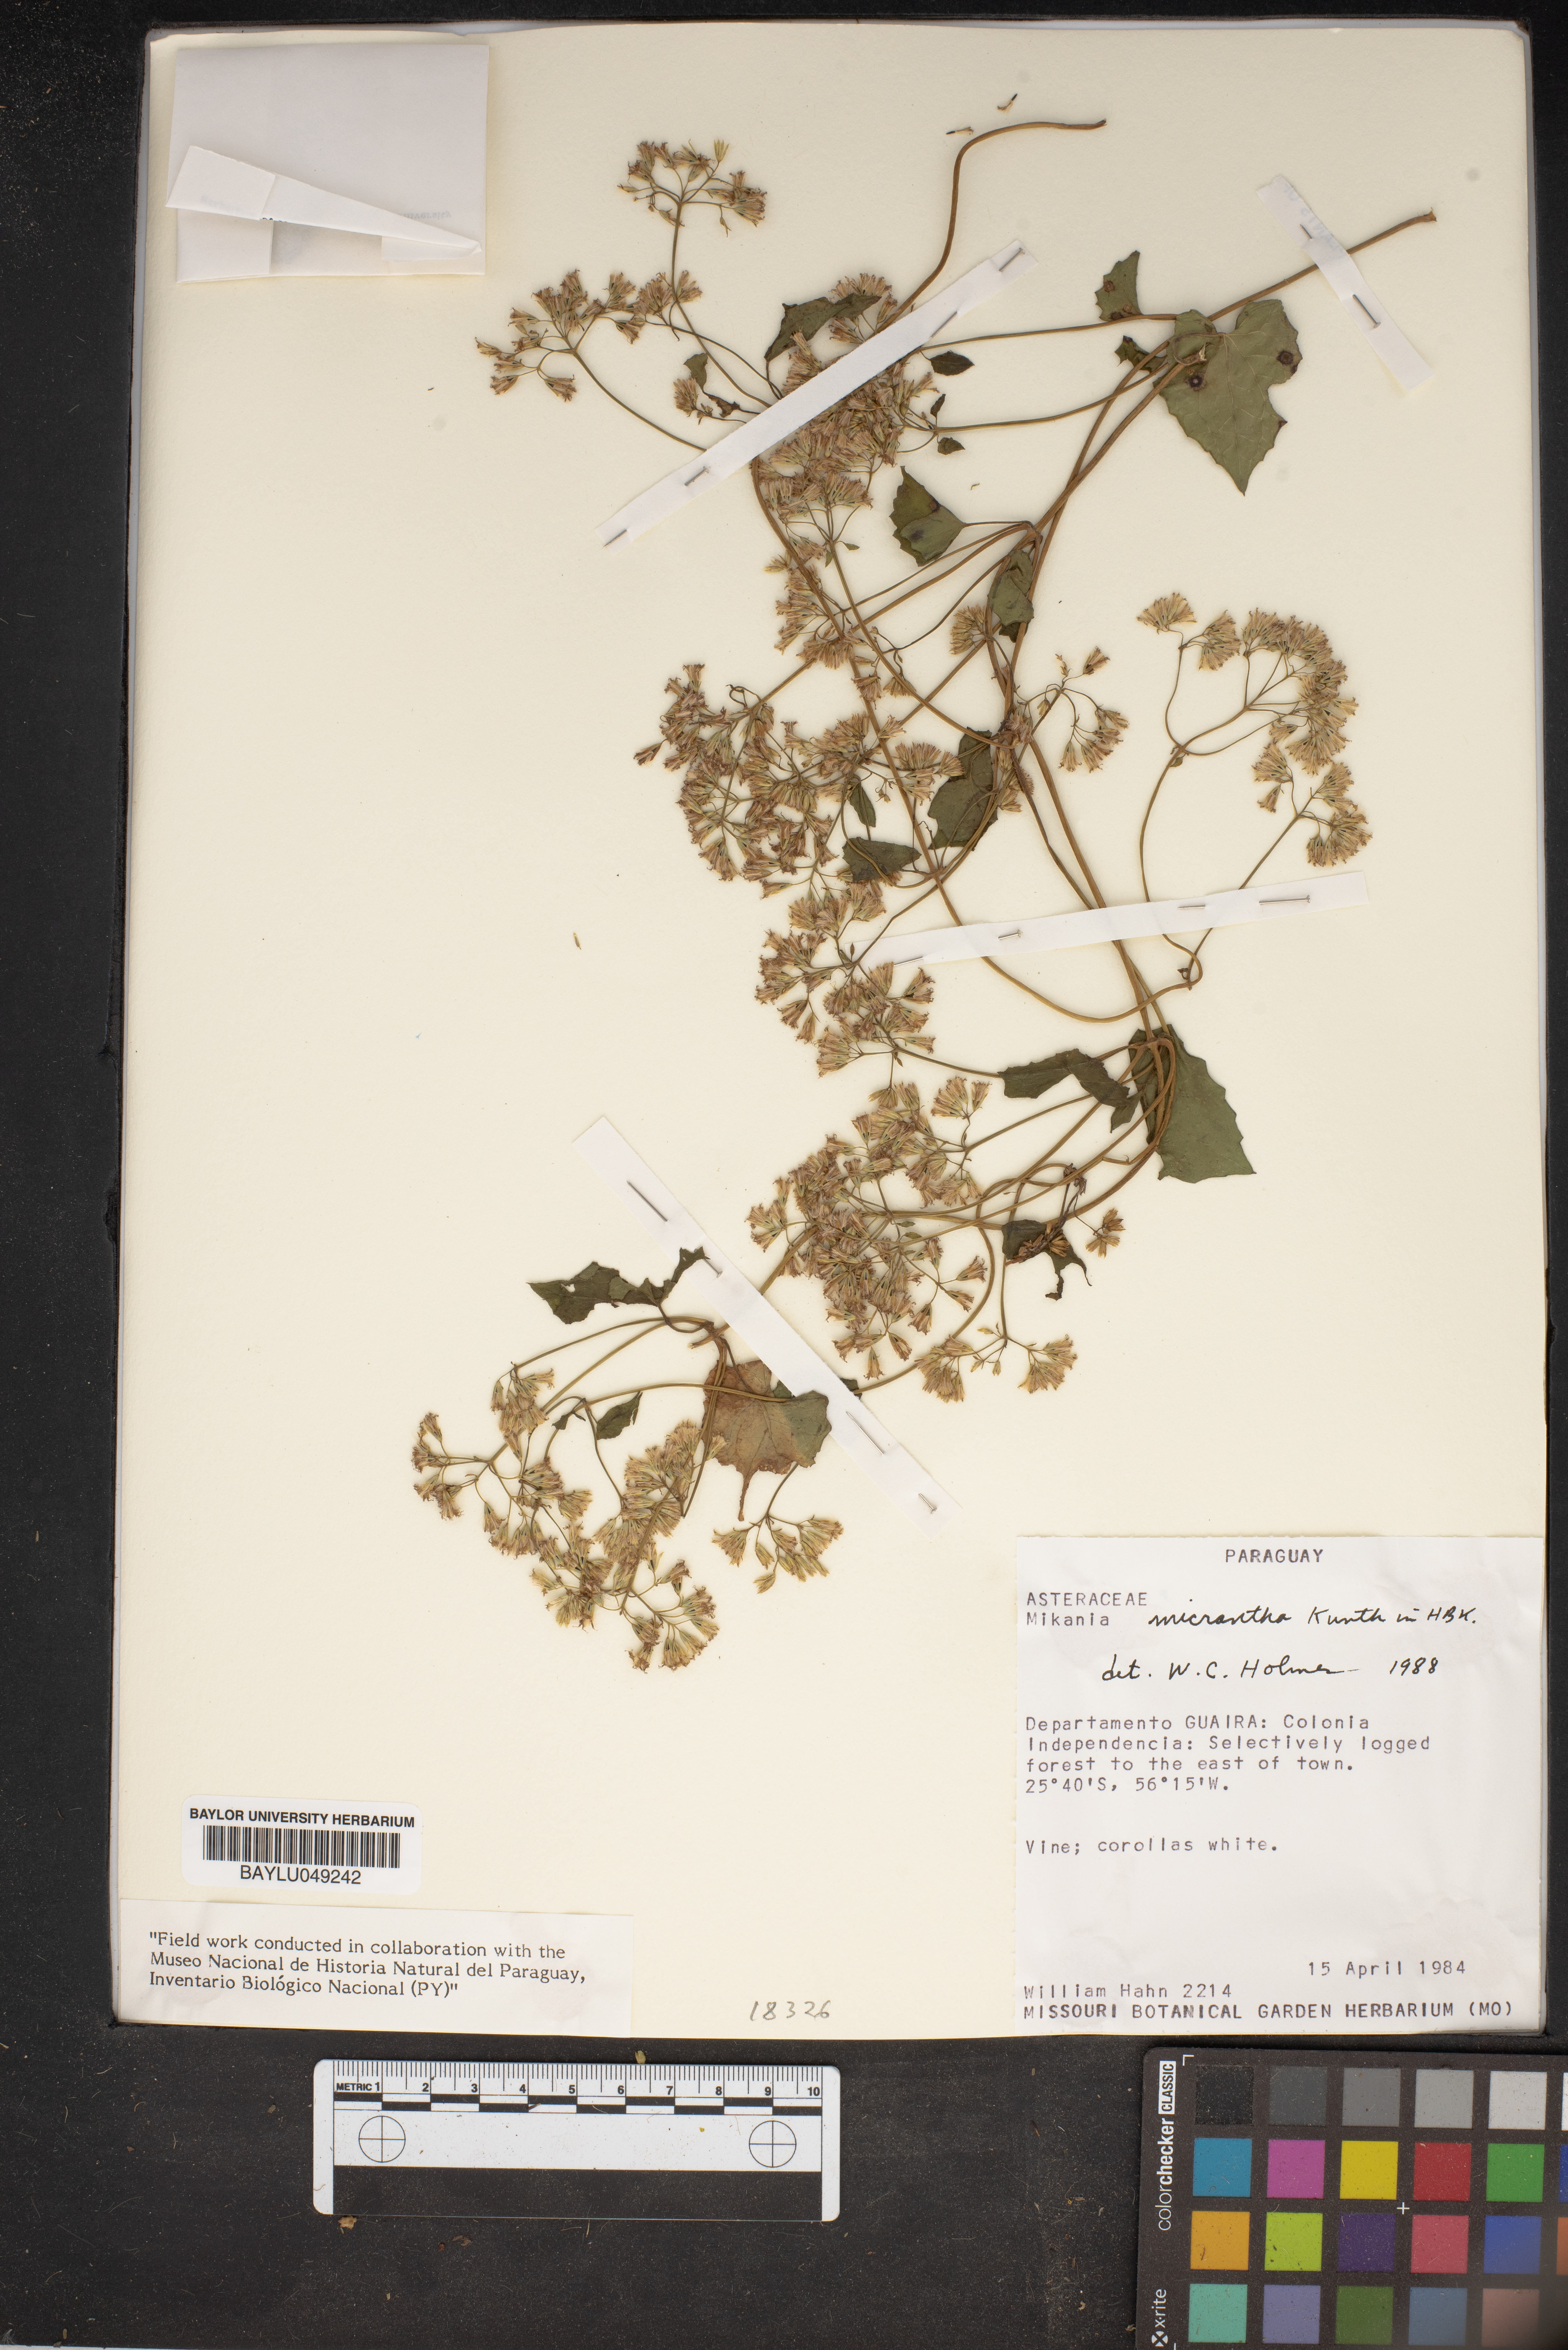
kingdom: Plantae
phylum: Tracheophyta
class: Magnoliopsida
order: Asterales
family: Asteraceae
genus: Mikania
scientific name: Mikania micrantha
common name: Mile-a-minute
